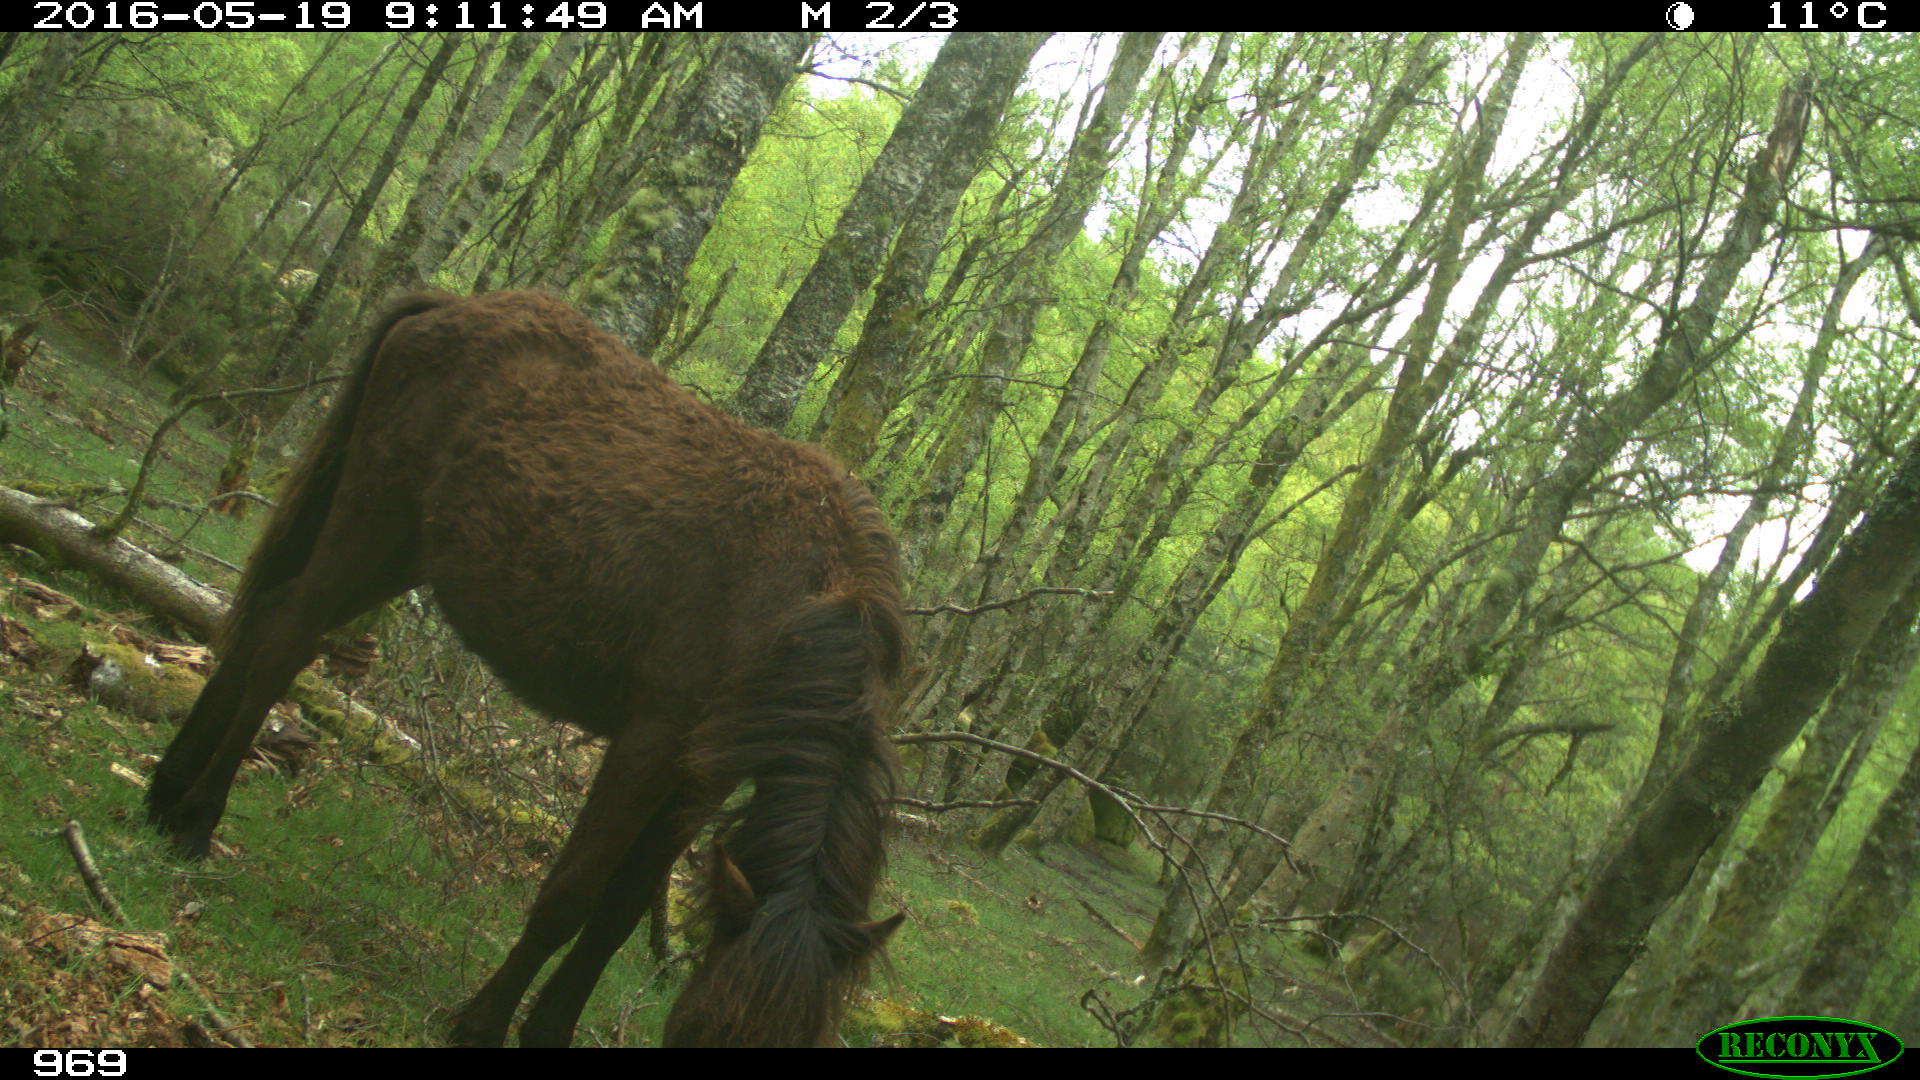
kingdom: Animalia
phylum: Chordata
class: Mammalia
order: Perissodactyla
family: Equidae
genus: Equus
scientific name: Equus caballus
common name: Horse
